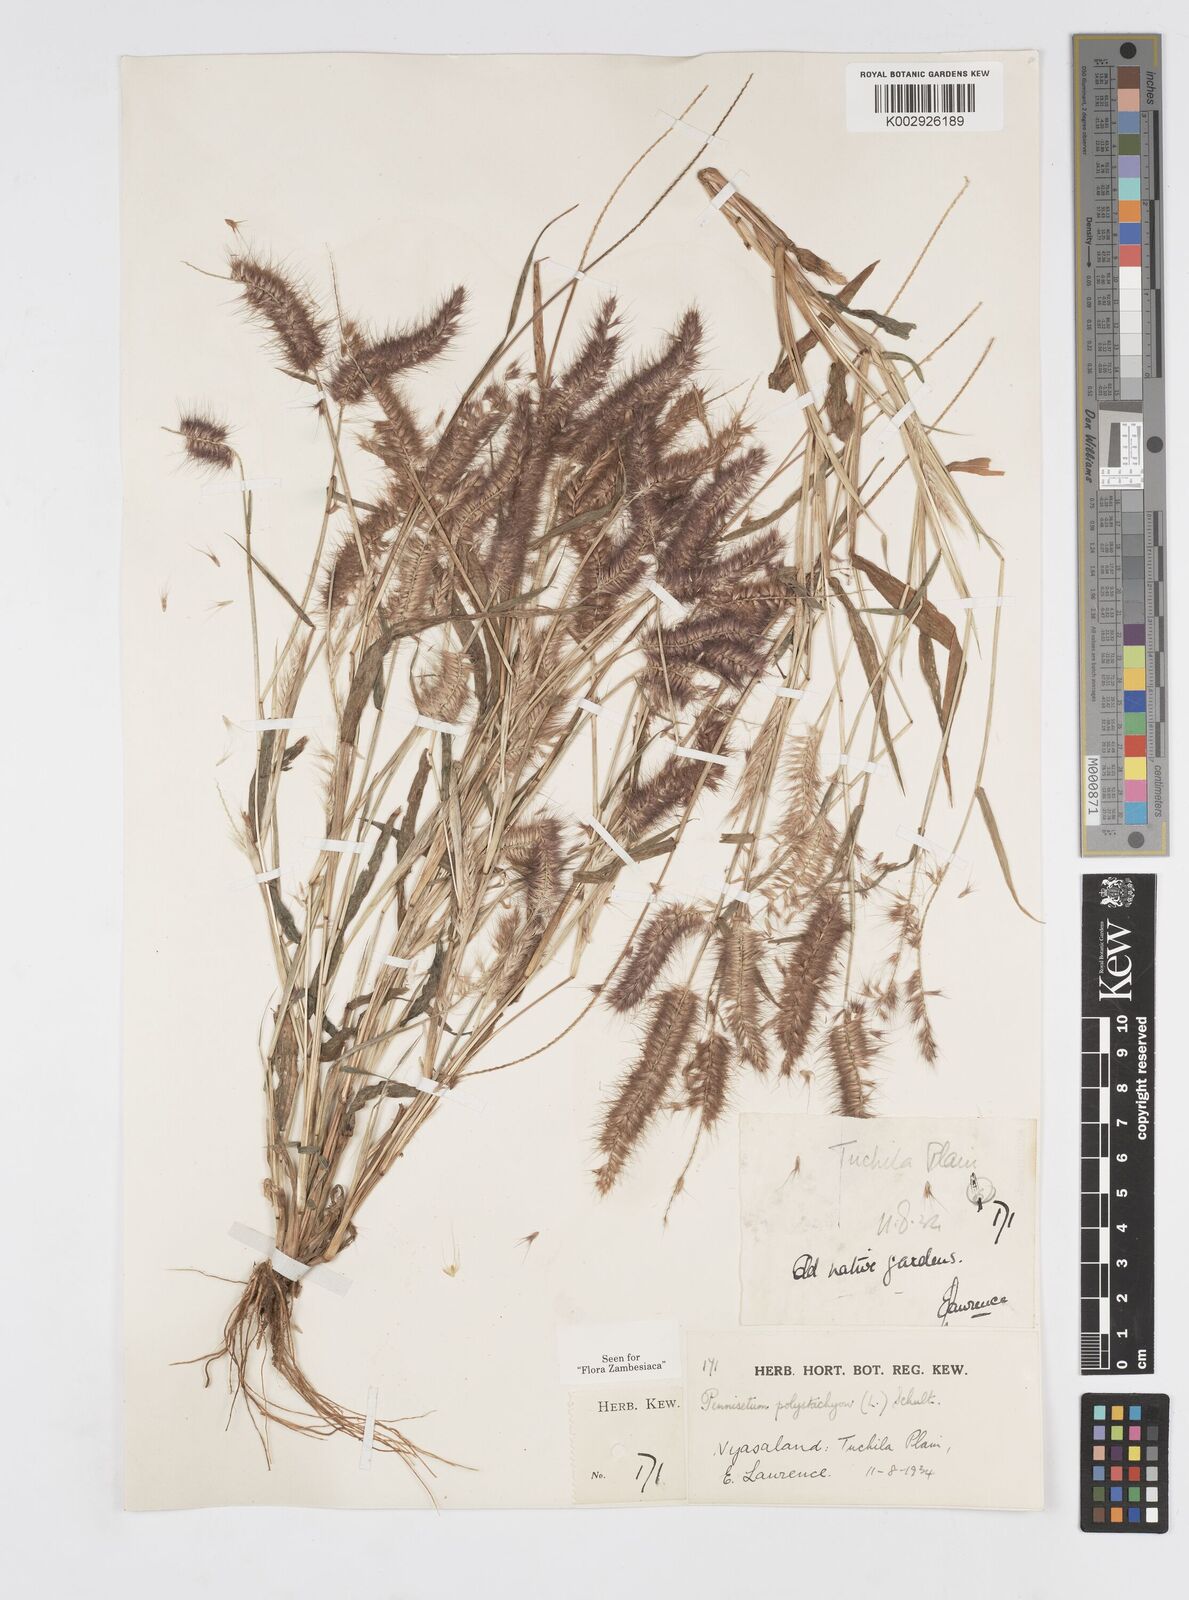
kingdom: Plantae
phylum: Tracheophyta
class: Liliopsida
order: Poales
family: Poaceae
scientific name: Poaceae
